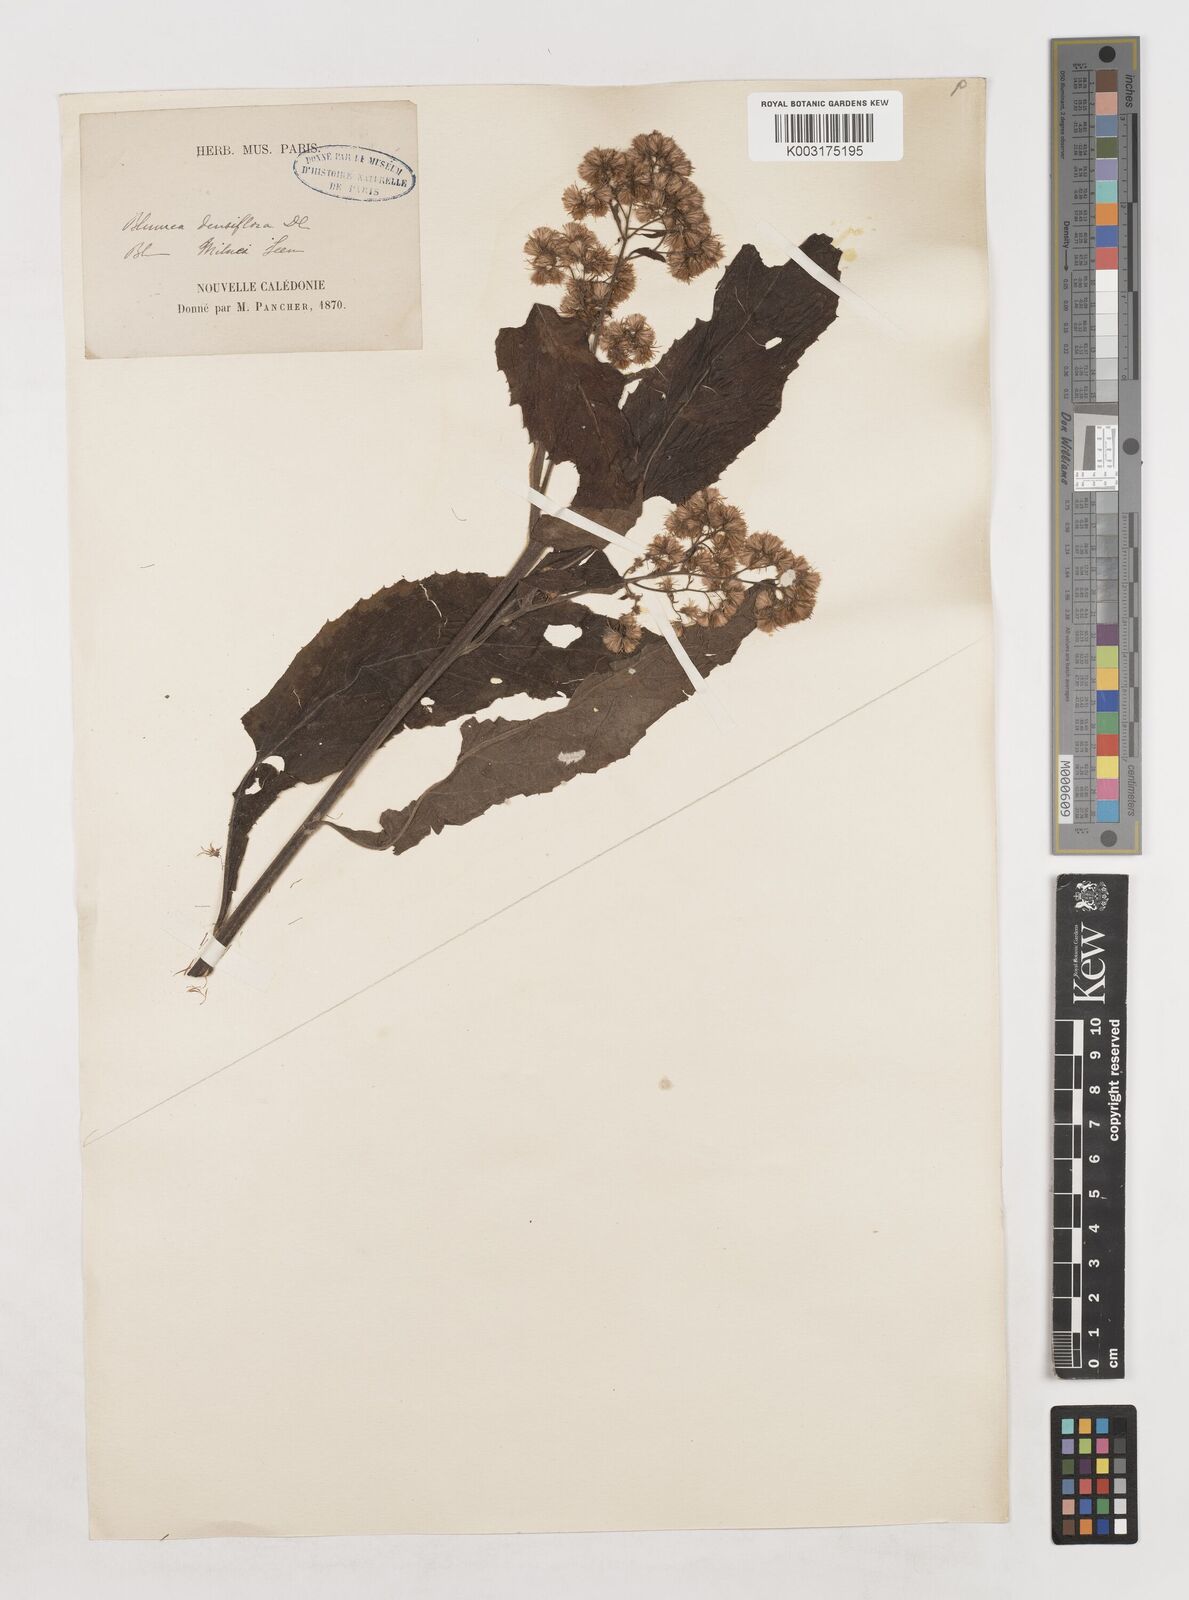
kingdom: Plantae
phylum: Tracheophyta
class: Magnoliopsida
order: Asterales
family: Asteraceae
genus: Blumea
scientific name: Blumea densiflora
